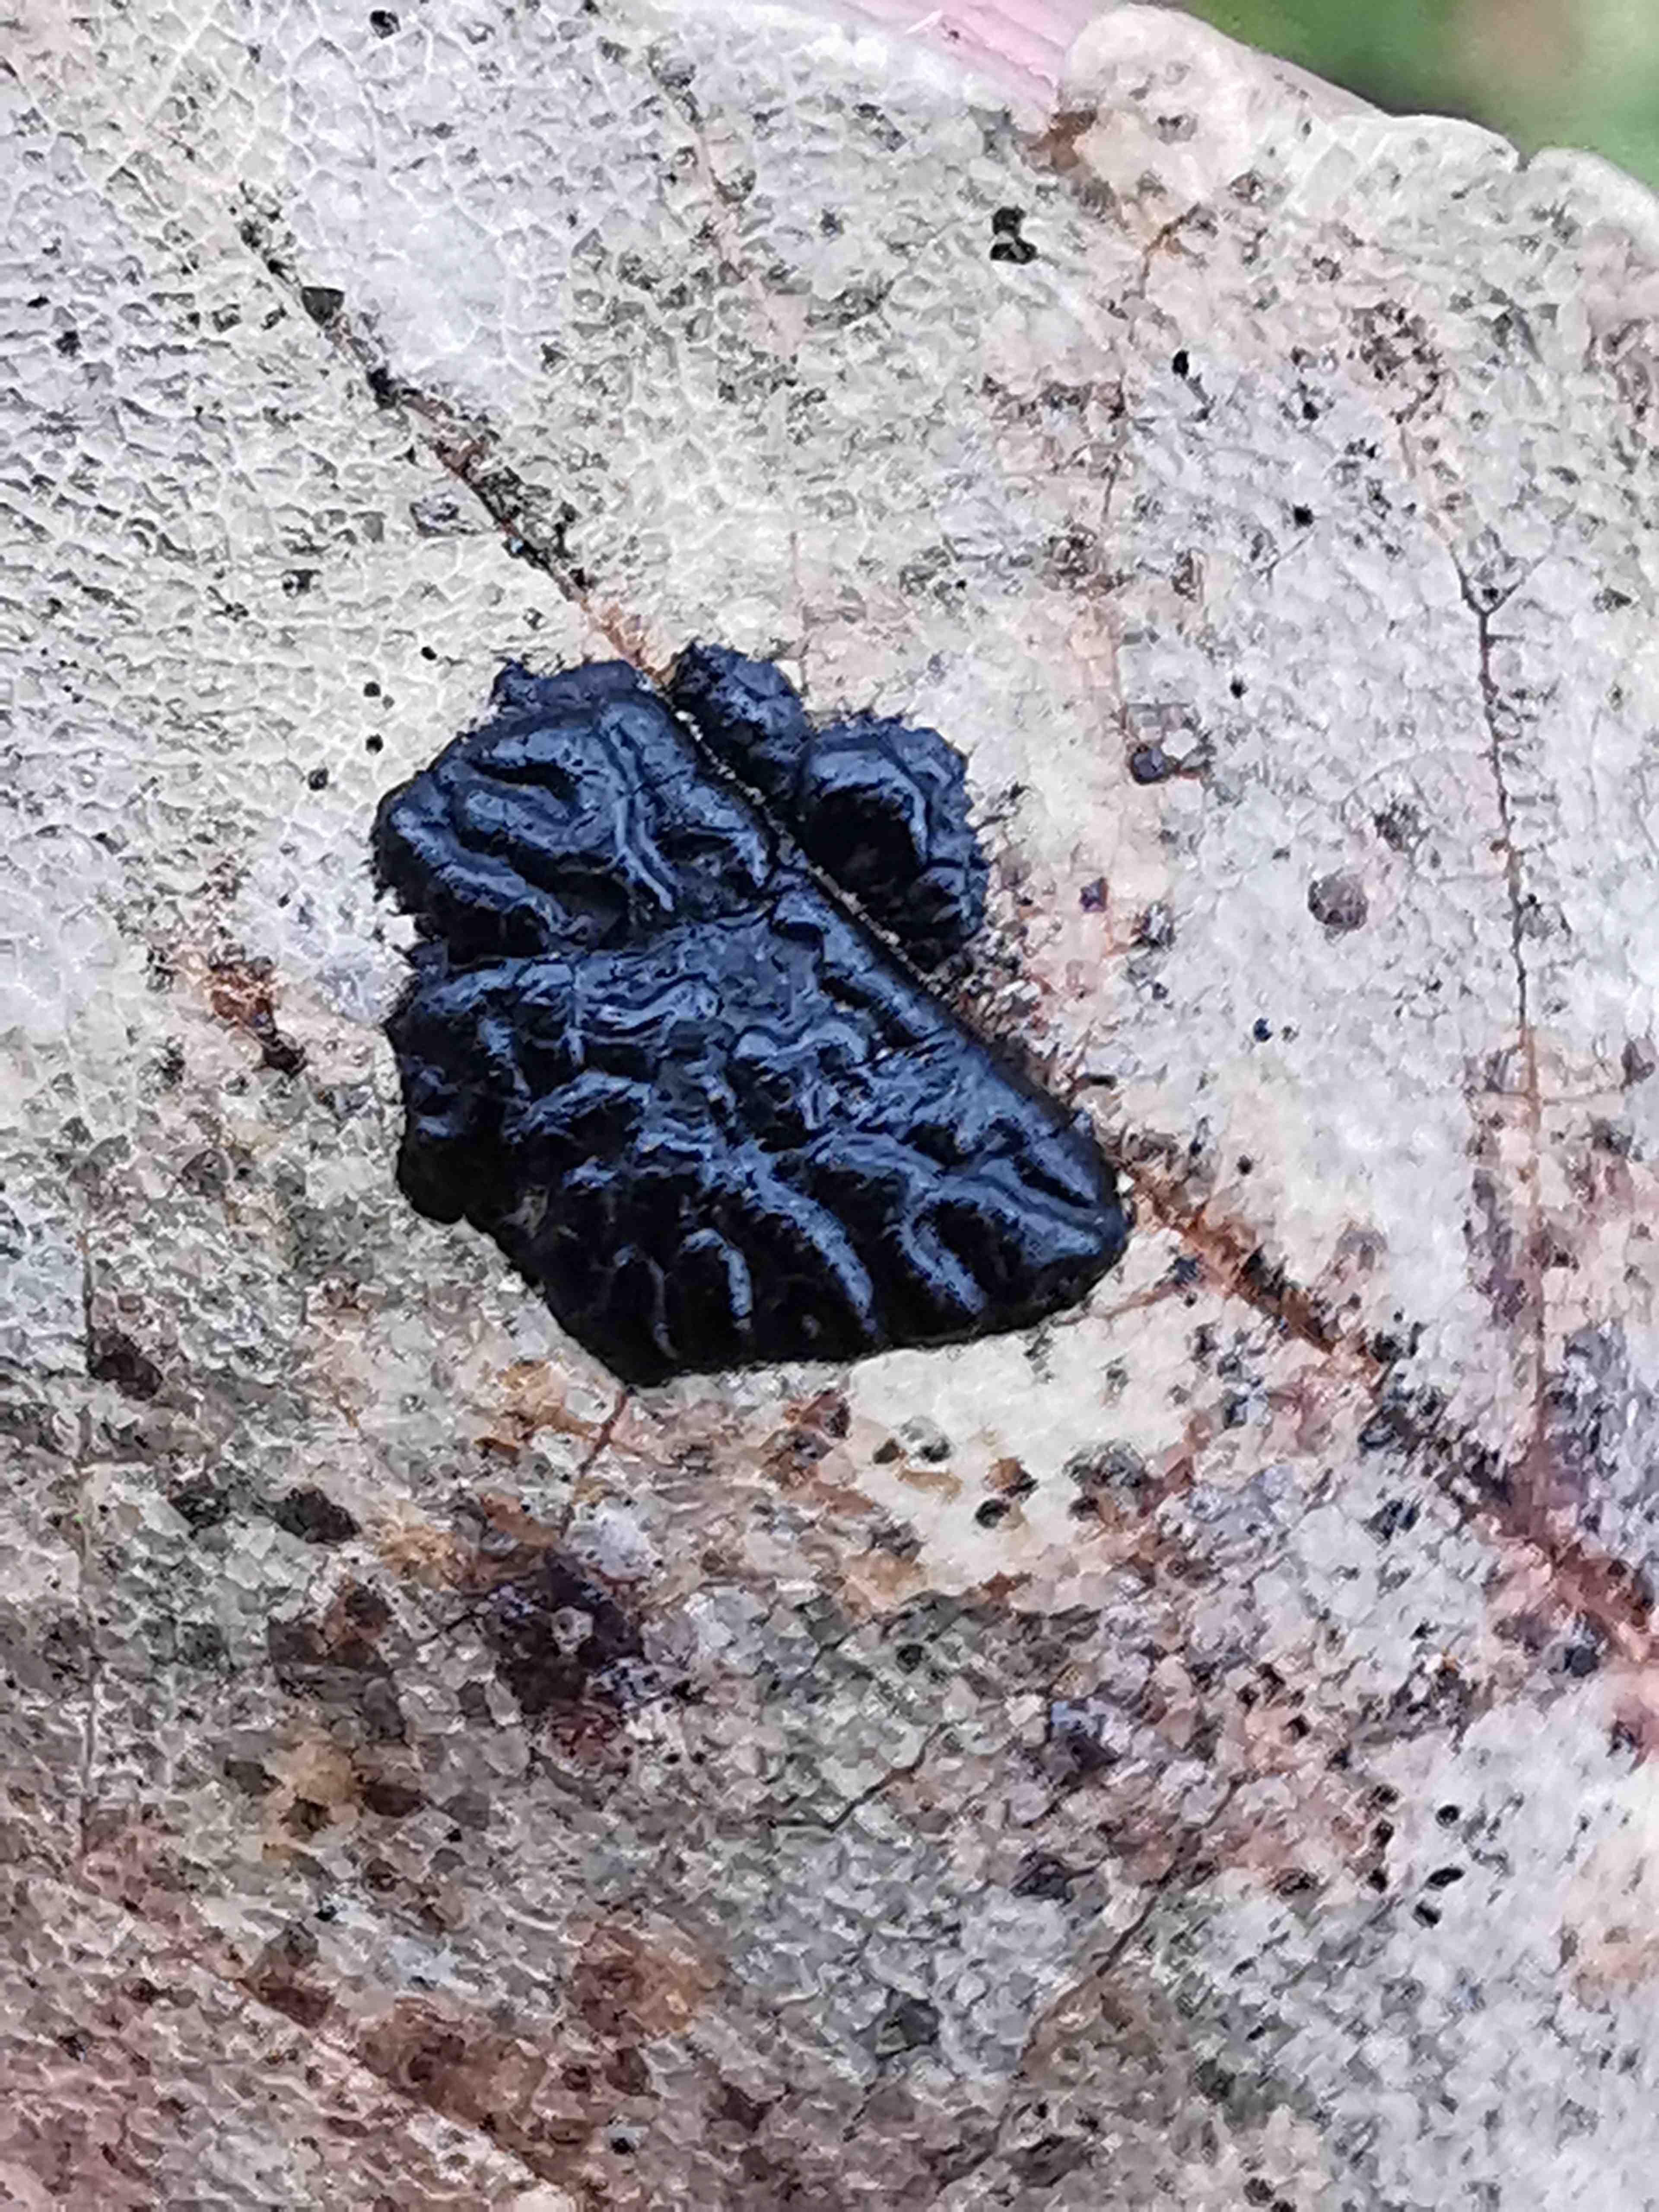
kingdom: Fungi
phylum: Ascomycota
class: Leotiomycetes
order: Rhytismatales
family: Rhytismataceae
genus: Rhytisma
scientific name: Rhytisma acerinum
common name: ahorn-rynkeplet
